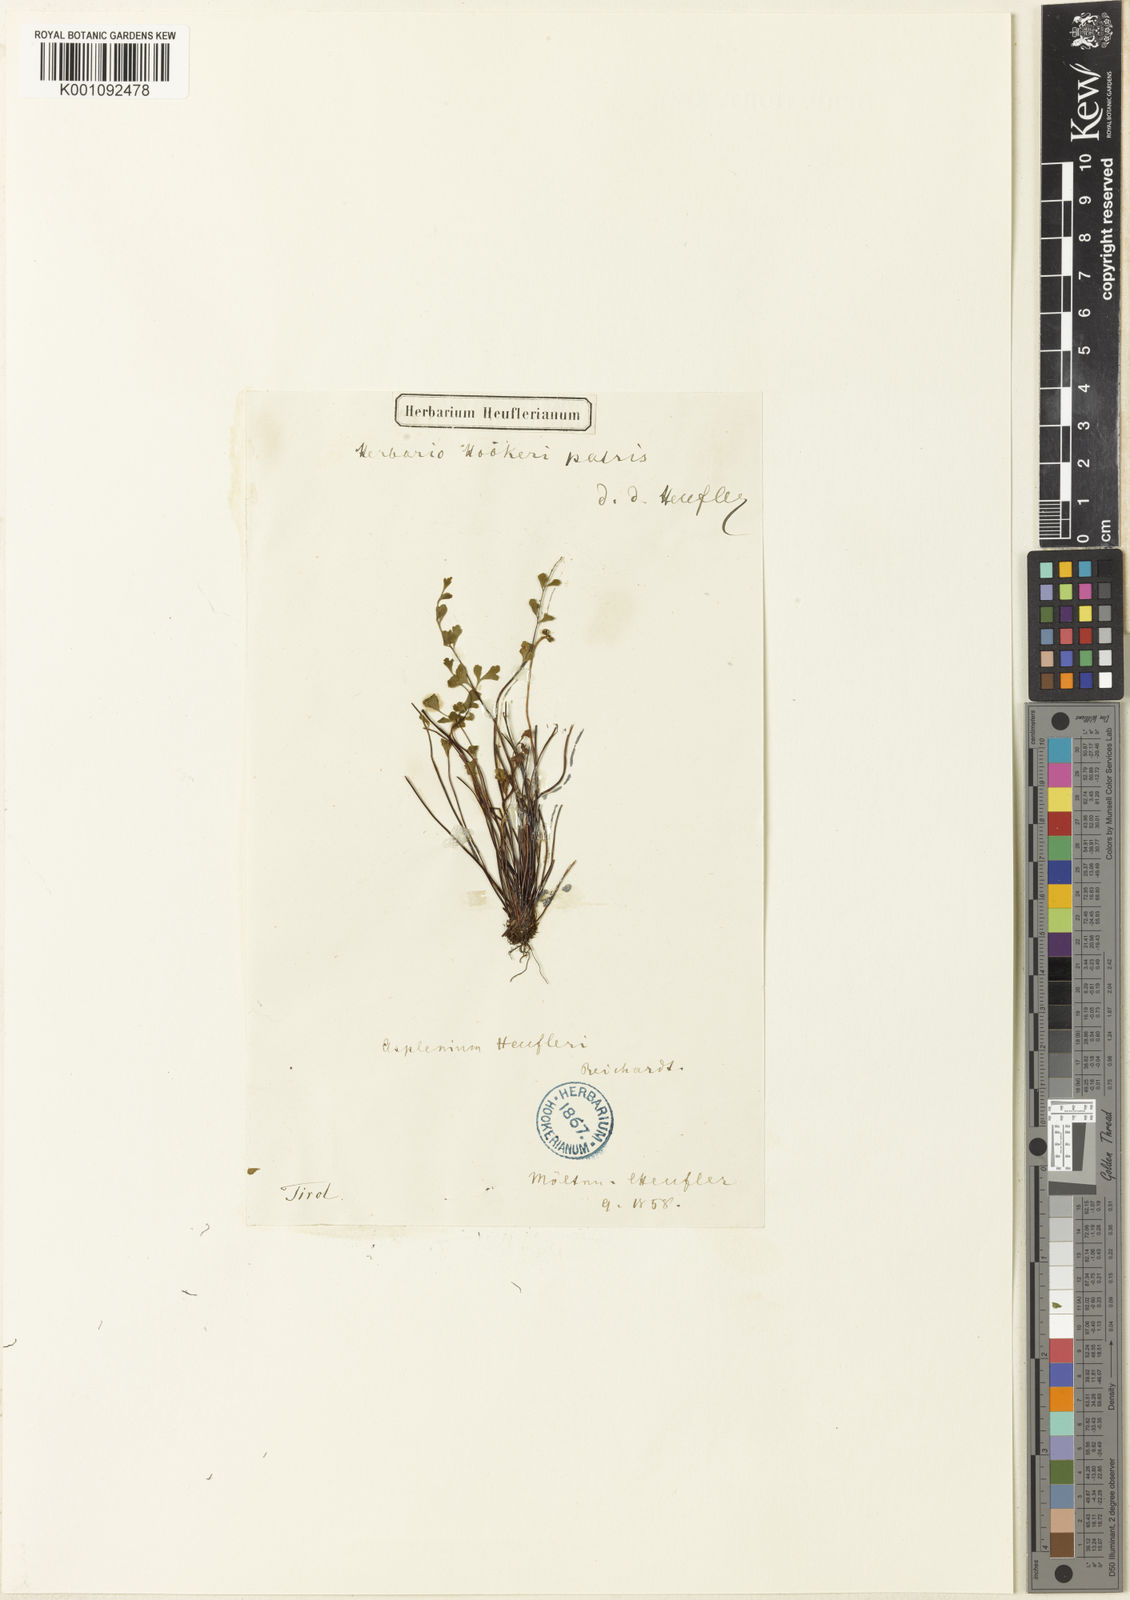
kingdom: Plantae
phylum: Tracheophyta
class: Polypodiopsida
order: Polypodiales
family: Aspleniaceae
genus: Asplenium
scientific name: Asplenium
